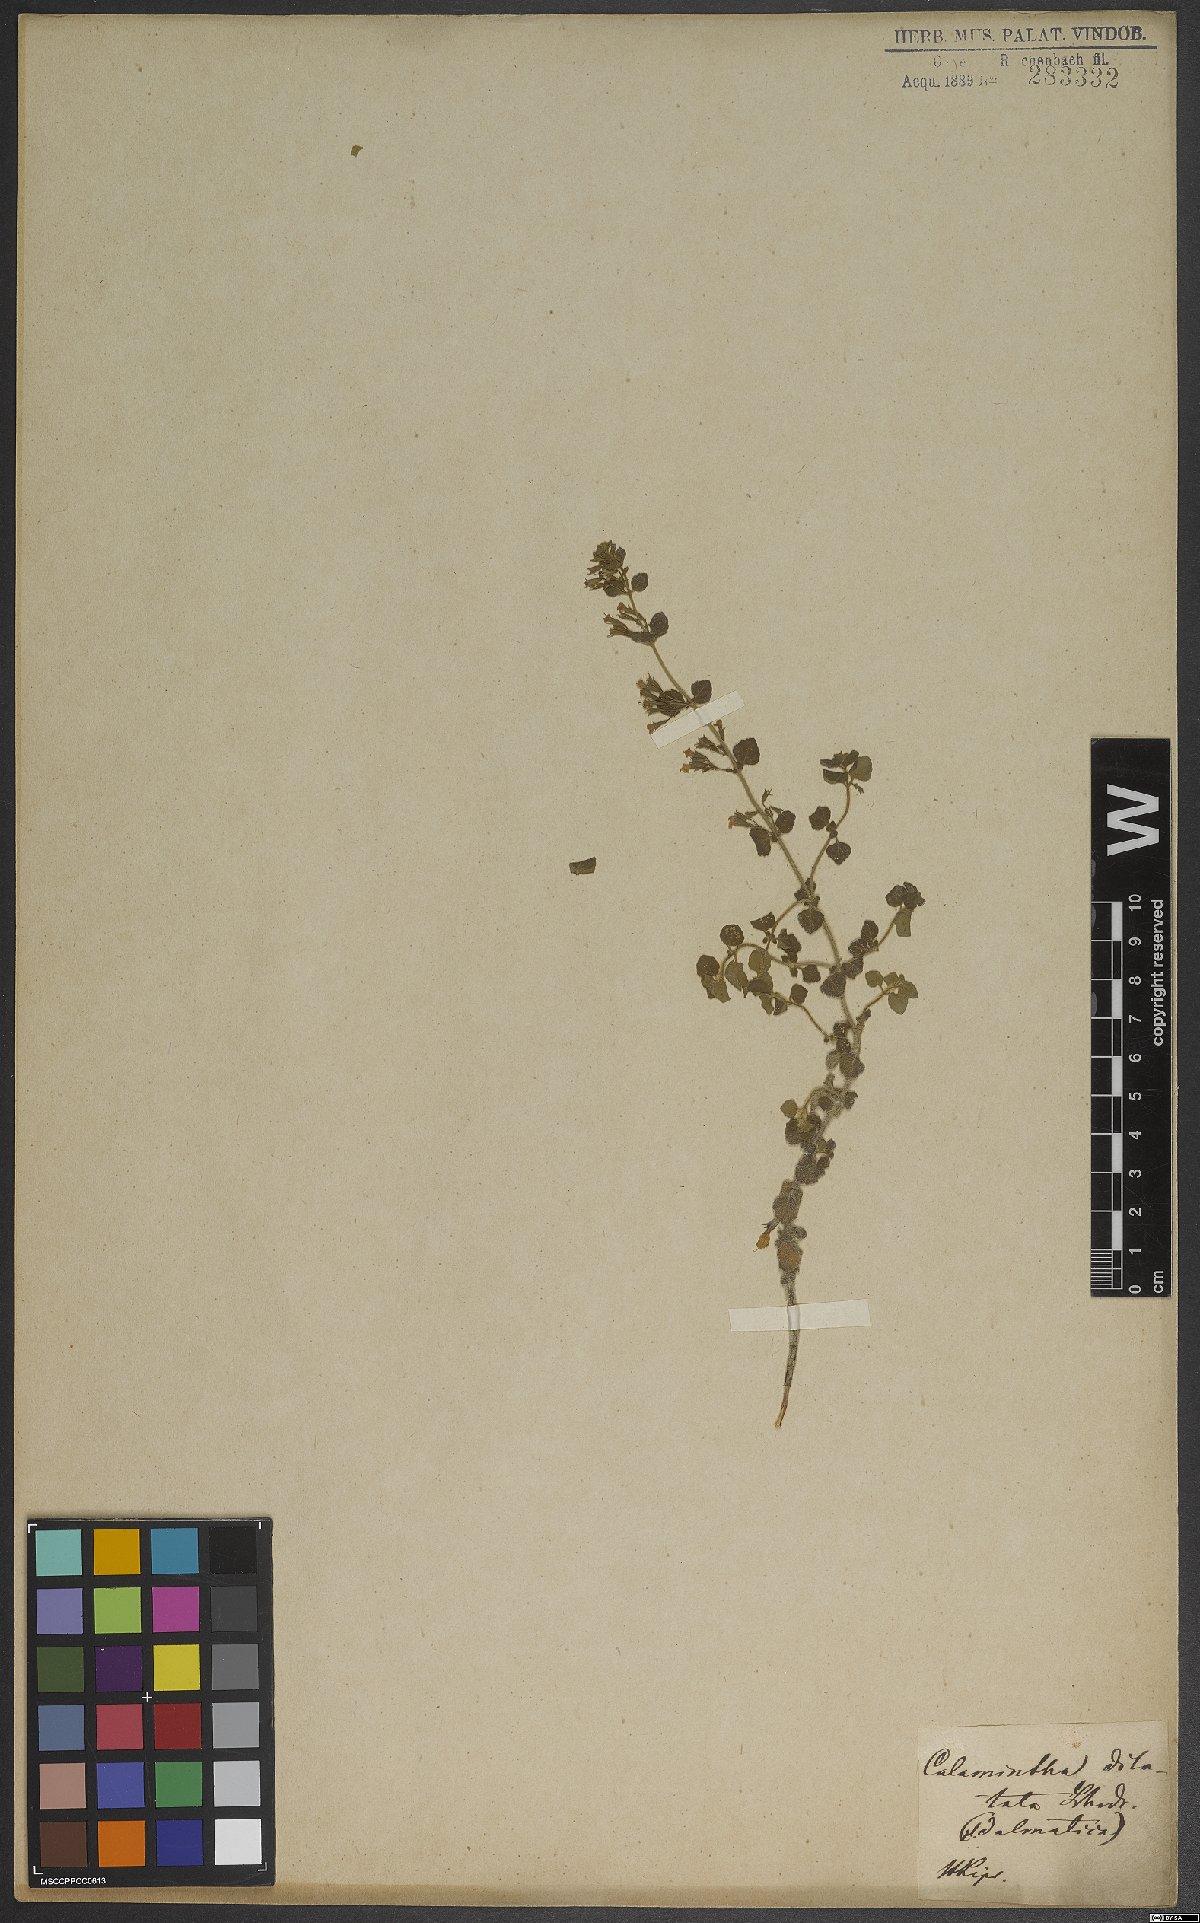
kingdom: Plantae
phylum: Tracheophyta
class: Magnoliopsida
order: Lamiales
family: Lamiaceae
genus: Clinopodium
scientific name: Clinopodium nepeta
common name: Lesser calamint
